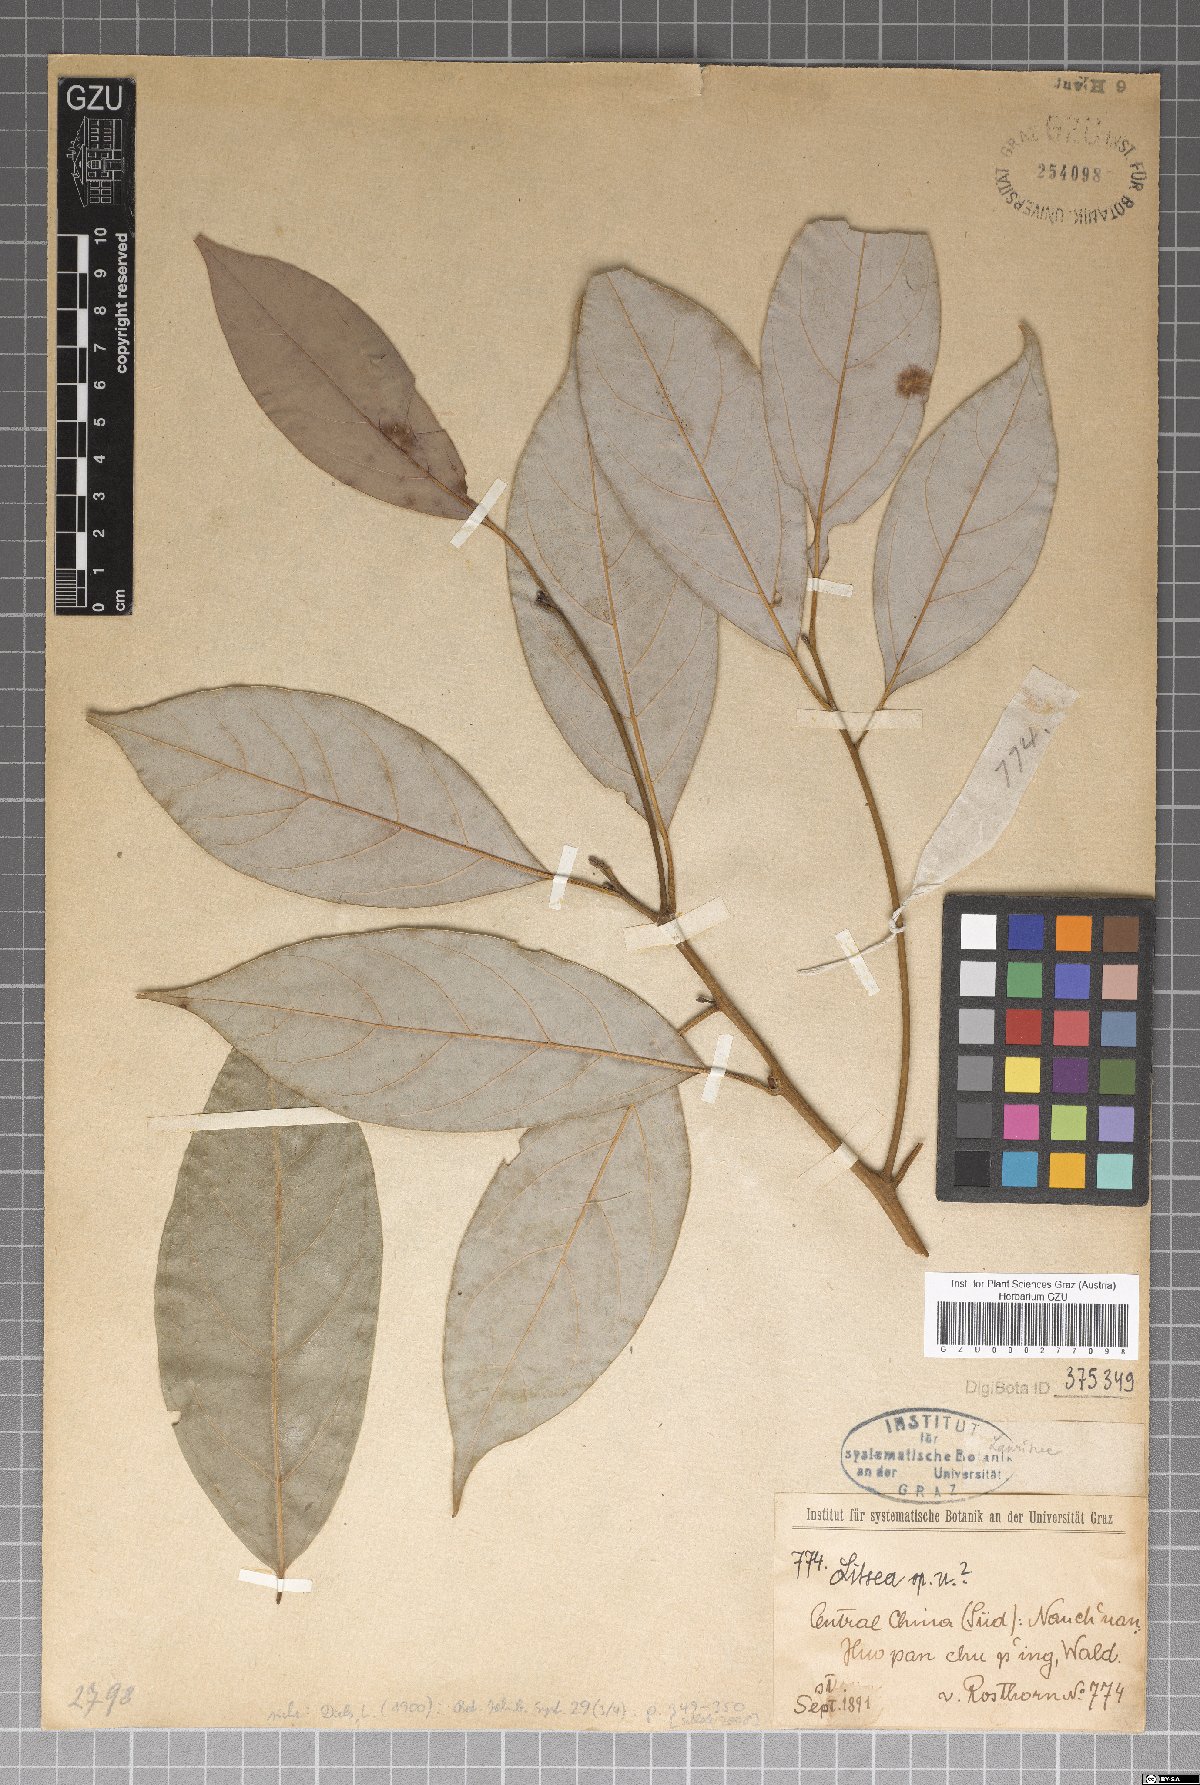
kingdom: Plantae
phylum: Tracheophyta
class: Magnoliopsida
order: Laurales
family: Lauraceae
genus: Litsea
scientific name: Litsea cubeba
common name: Mountain-pepper
